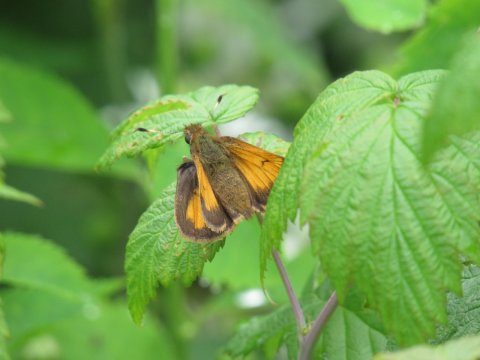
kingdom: Animalia
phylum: Arthropoda
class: Insecta
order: Lepidoptera
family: Hesperiidae
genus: Lon
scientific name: Lon hobomok
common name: Hobomok Skipper
